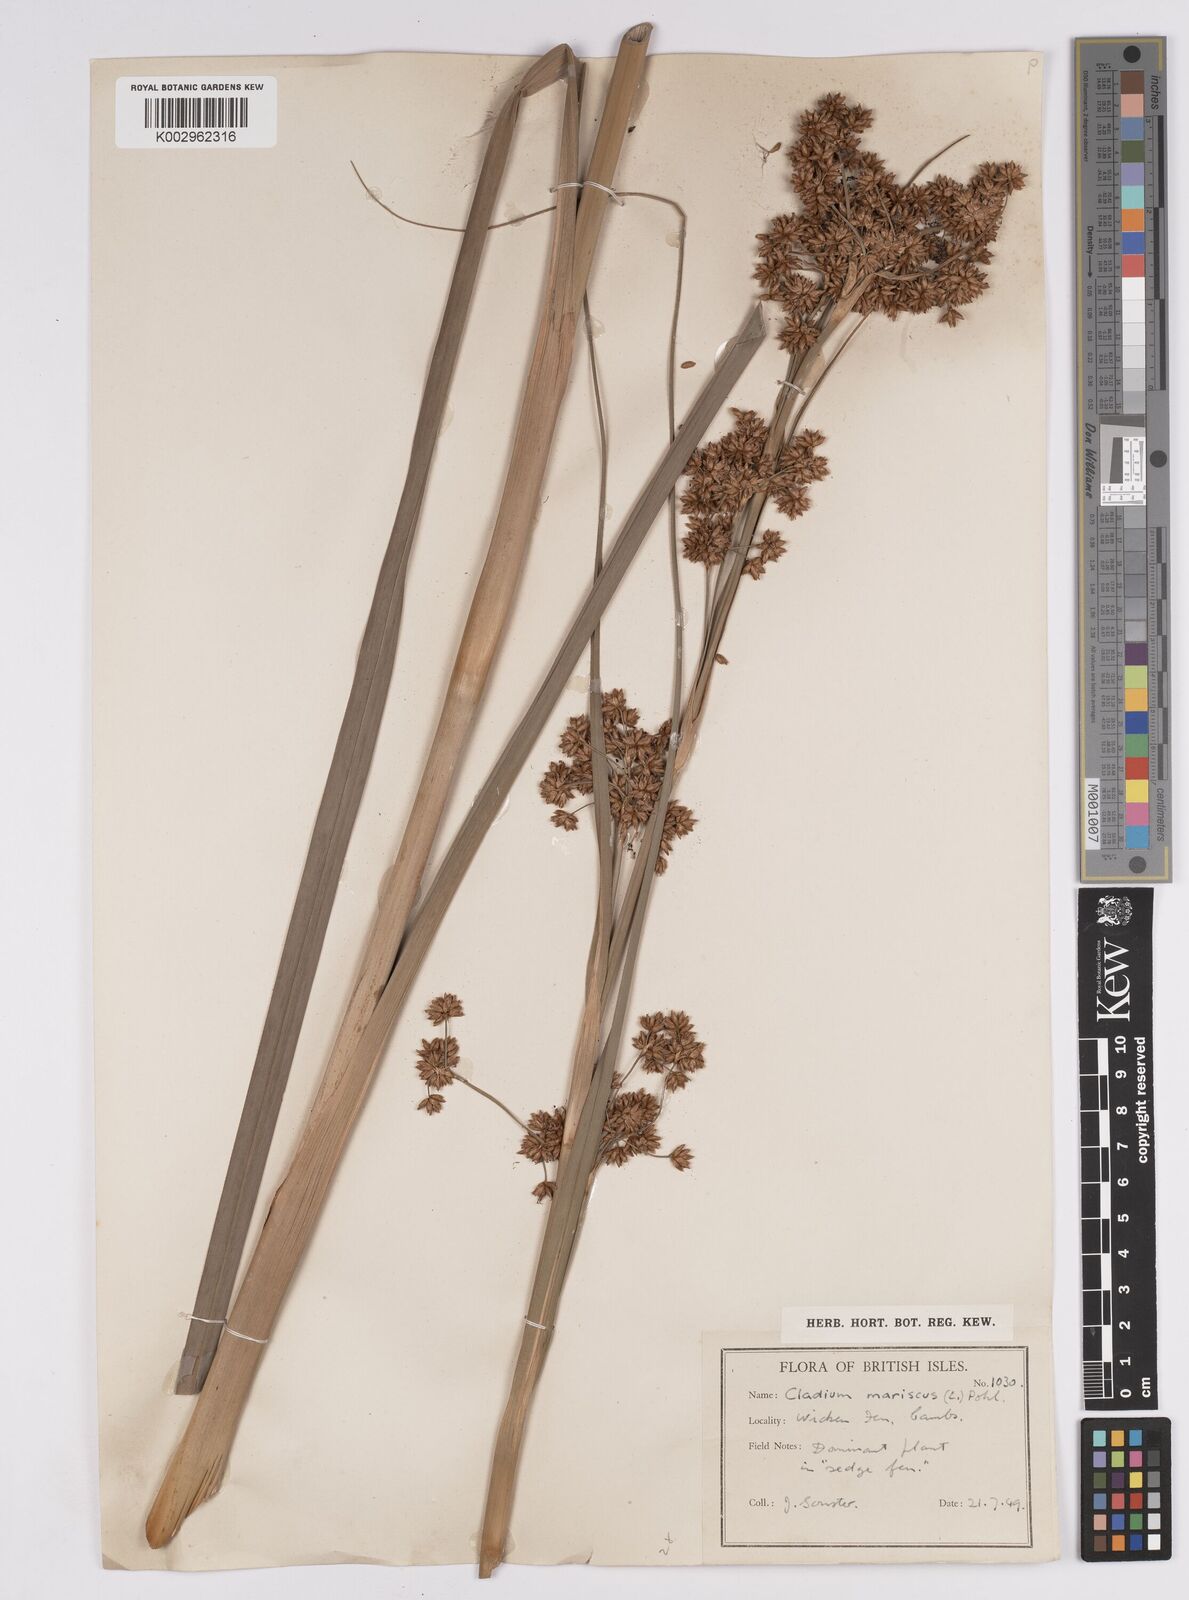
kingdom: Plantae
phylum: Tracheophyta
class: Liliopsida
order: Poales
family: Cyperaceae
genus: Cladium
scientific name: Cladium mariscus
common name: Great fen-sedge
